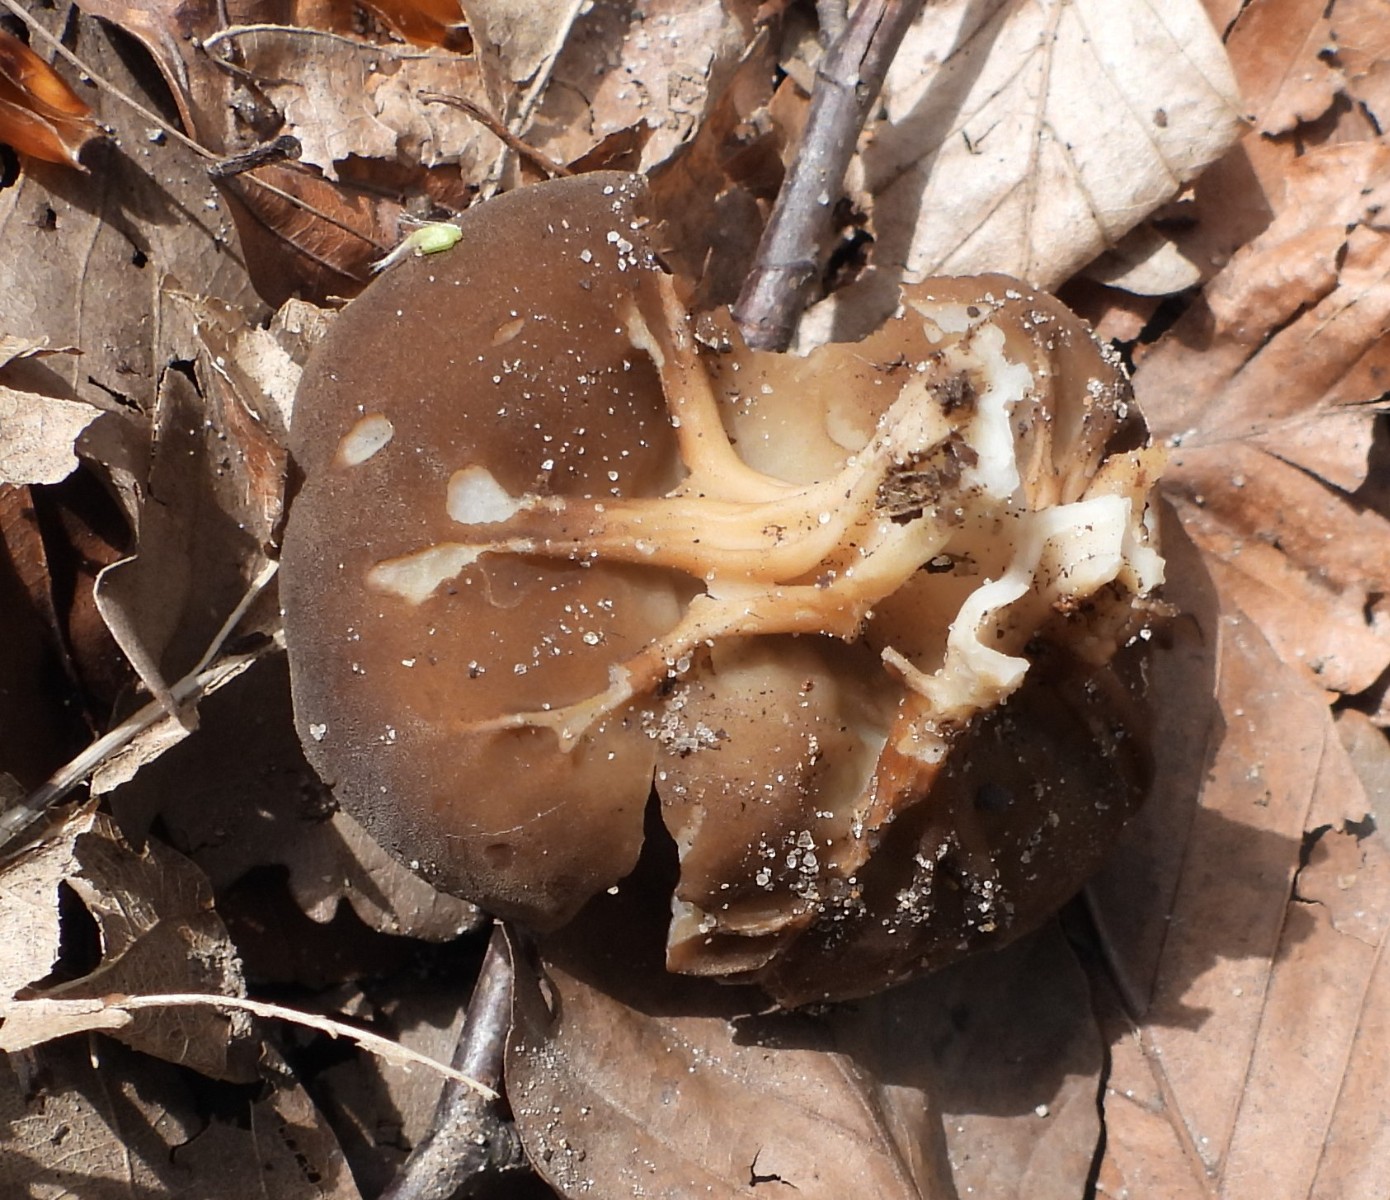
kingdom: Fungi
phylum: Ascomycota
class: Pezizomycetes
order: Pezizales
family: Helvellaceae
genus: Helvella
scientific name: Helvella acetabulum
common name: pokal-foldhat
